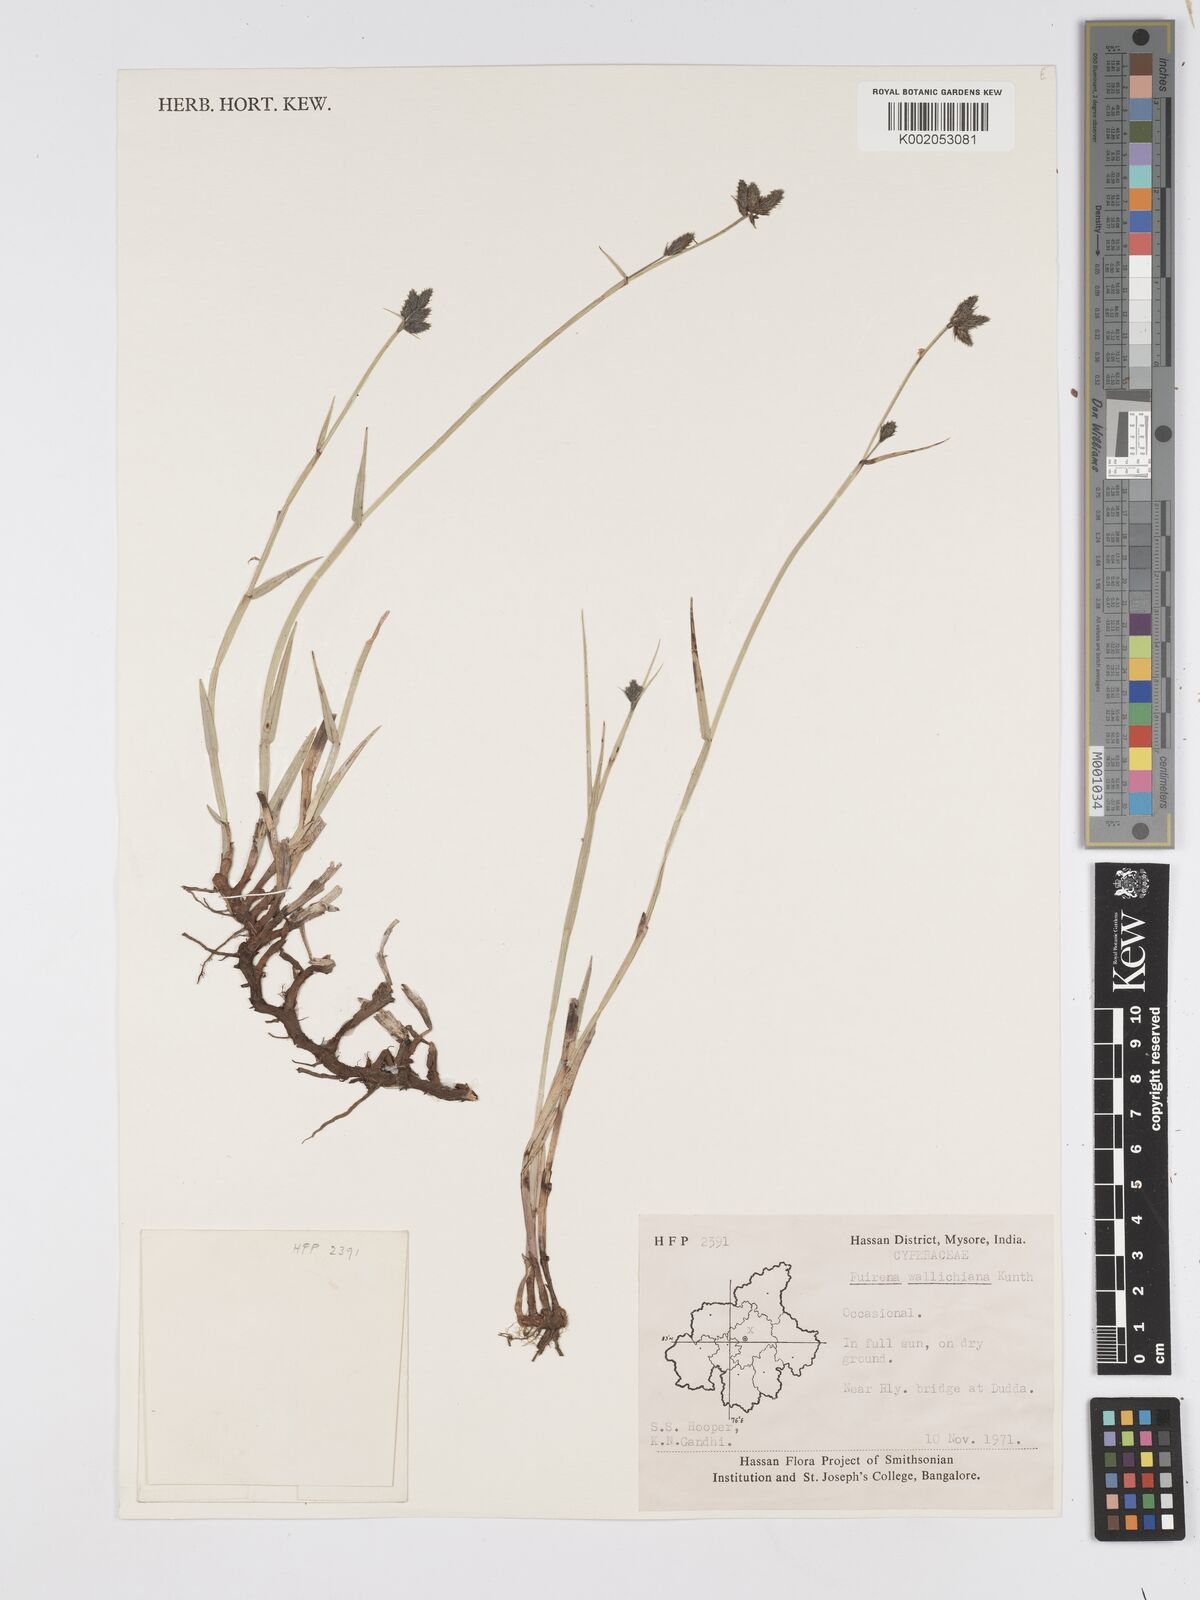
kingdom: Plantae
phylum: Tracheophyta
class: Liliopsida
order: Poales
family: Cyperaceae
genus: Fuirena
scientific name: Fuirena cuspidata
